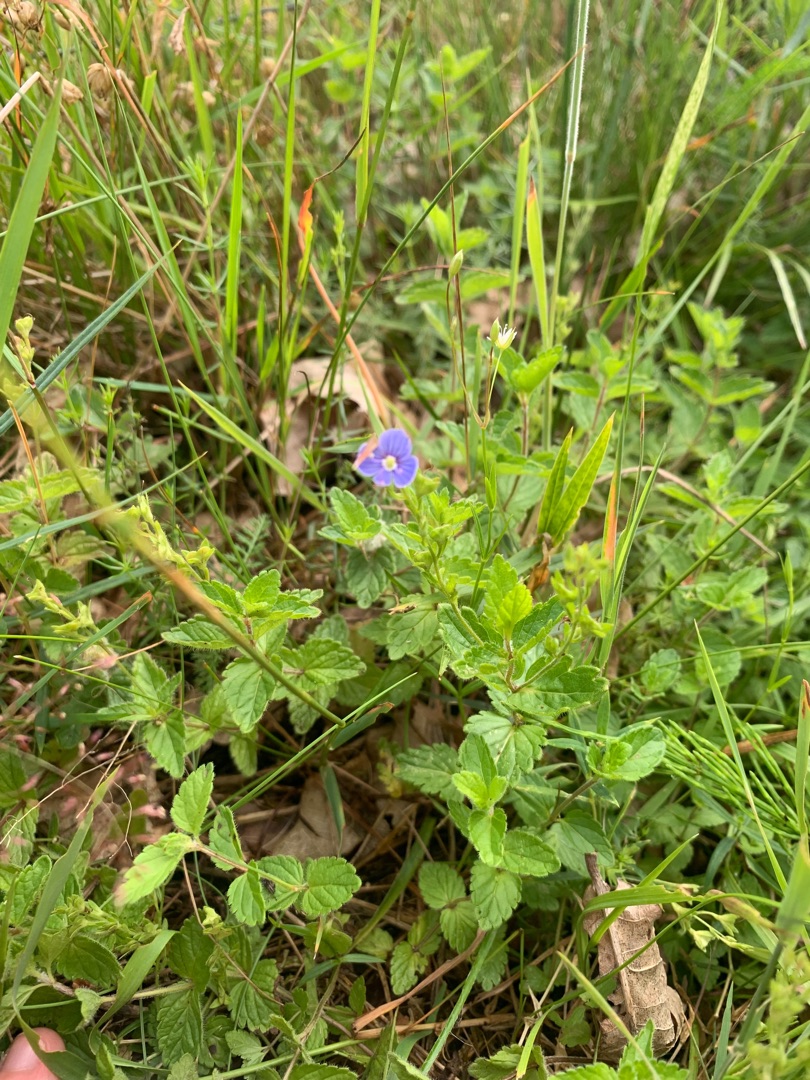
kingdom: Plantae
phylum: Tracheophyta
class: Magnoliopsida
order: Lamiales
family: Plantaginaceae
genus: Veronica
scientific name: Veronica chamaedrys
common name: Tveskægget ærenpris
